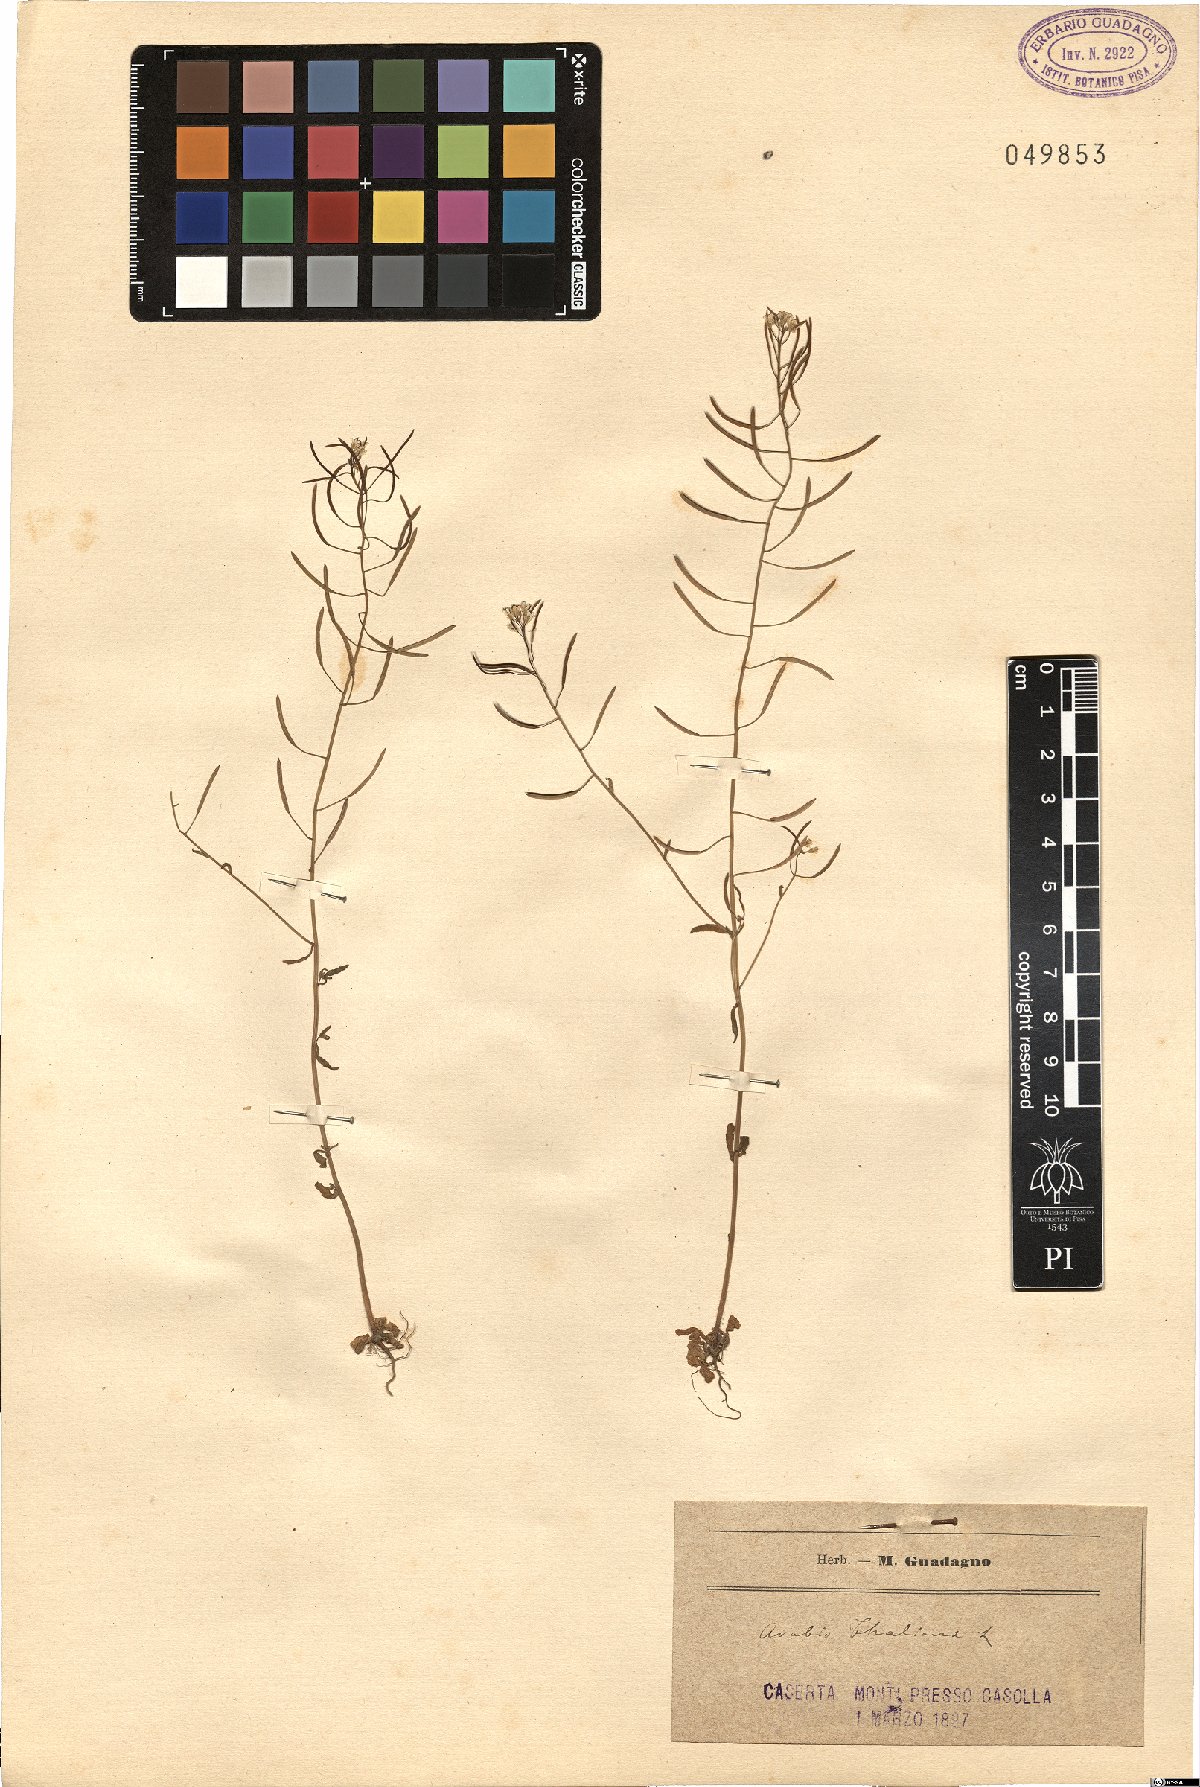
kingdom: Plantae
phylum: Tracheophyta
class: Magnoliopsida
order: Brassicales
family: Brassicaceae
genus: Arabidopsis
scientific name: Arabidopsis thaliana
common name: Thale cress
